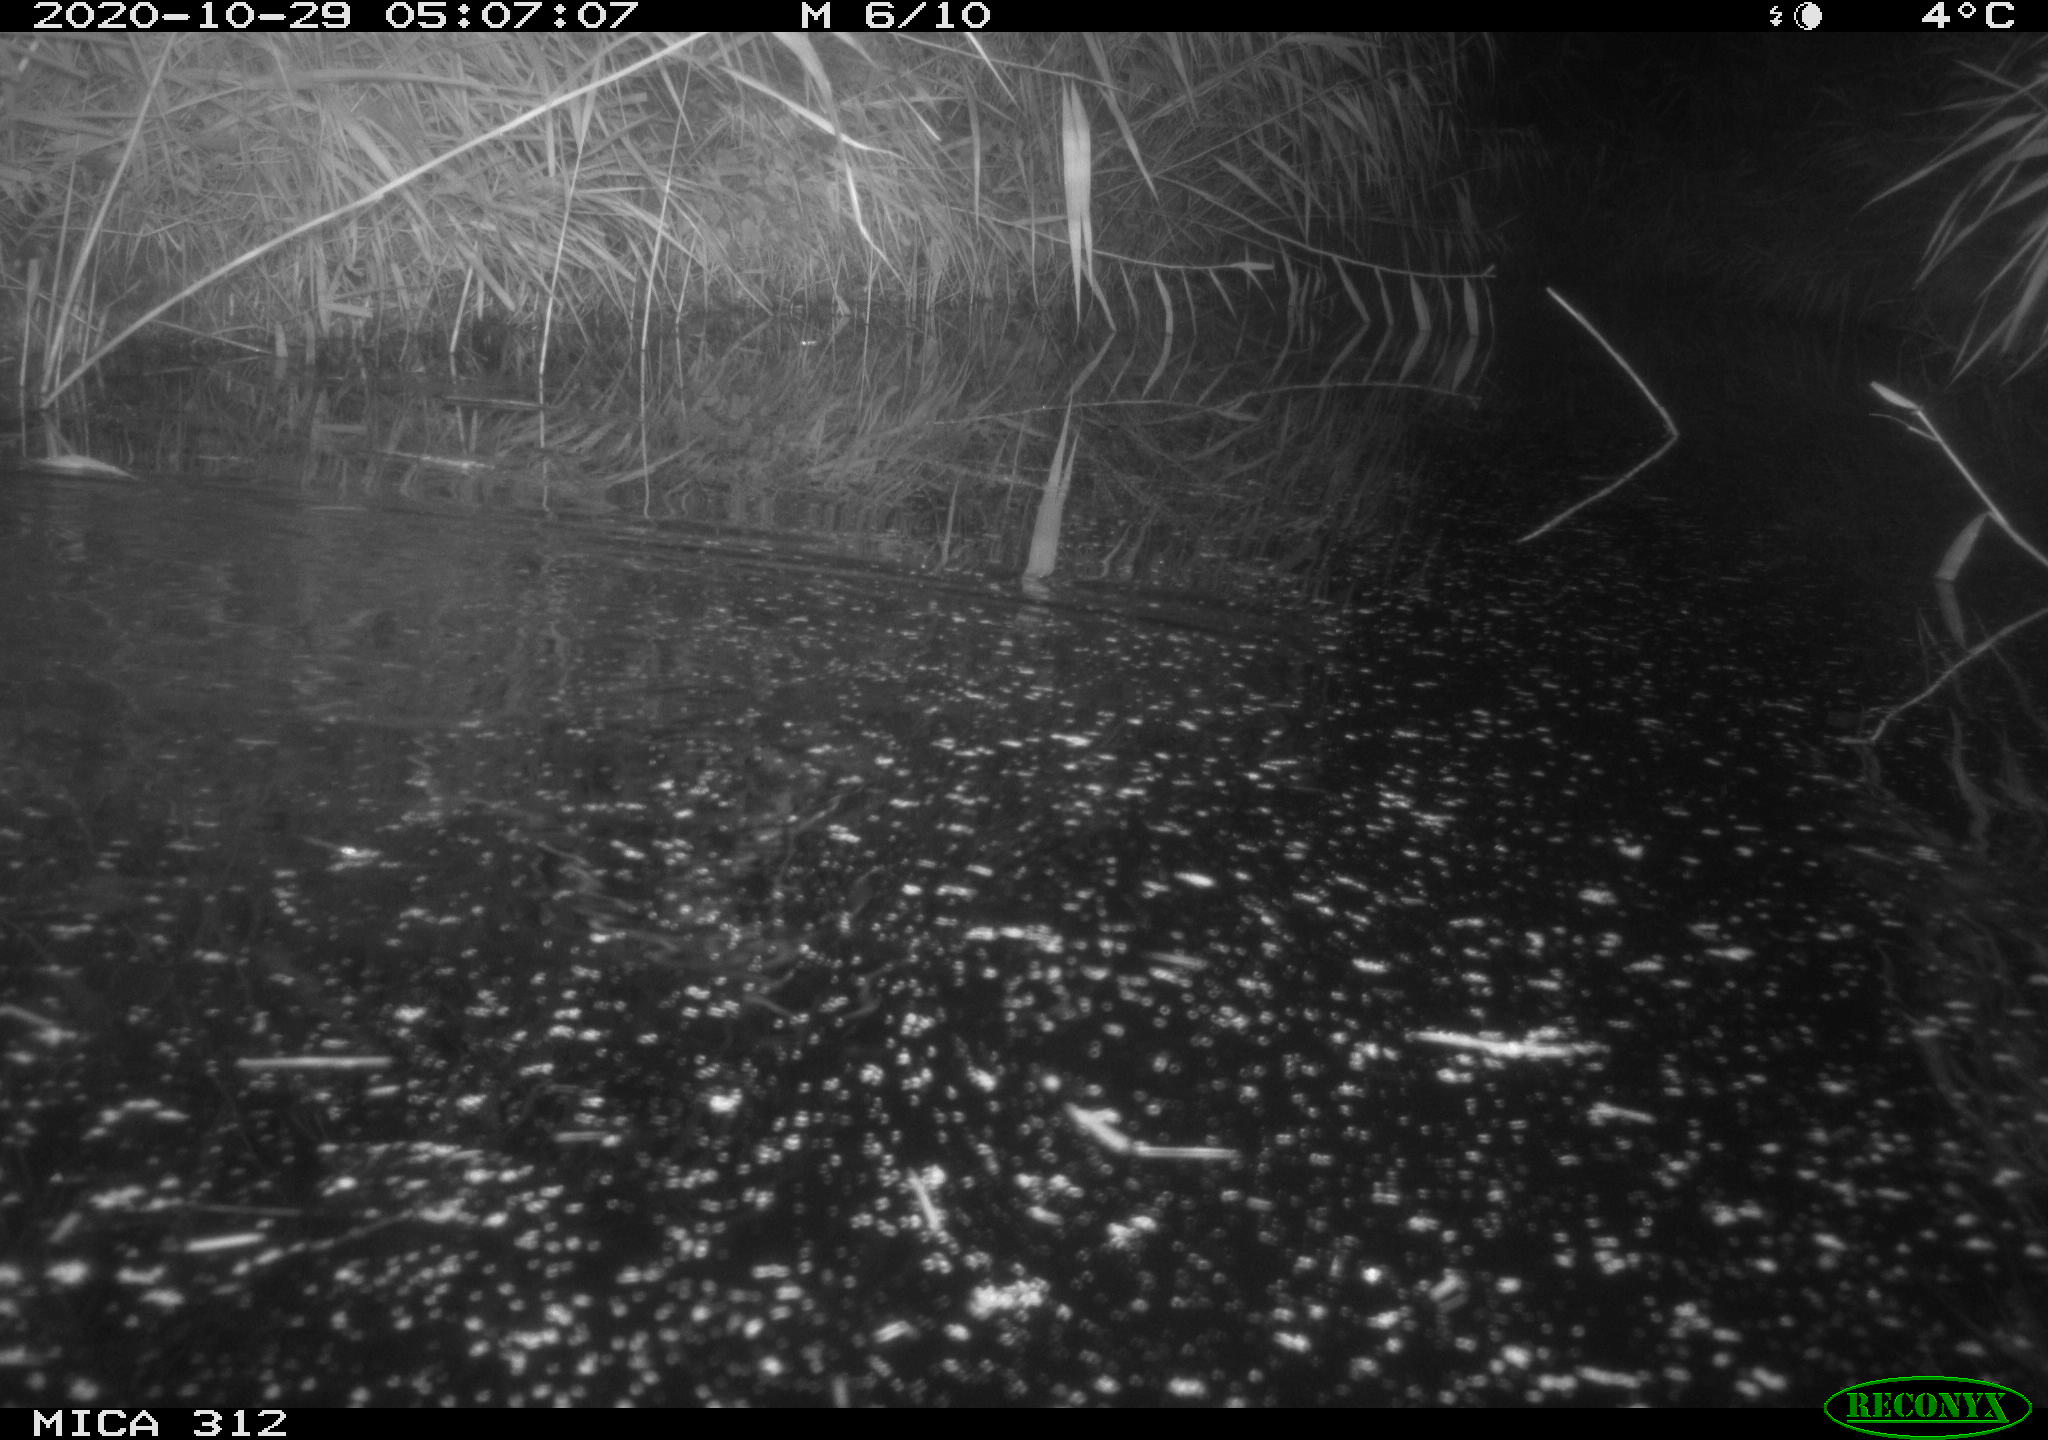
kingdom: Animalia
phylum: Chordata
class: Mammalia
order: Rodentia
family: Muridae
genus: Rattus
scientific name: Rattus norvegicus
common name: Brown rat
